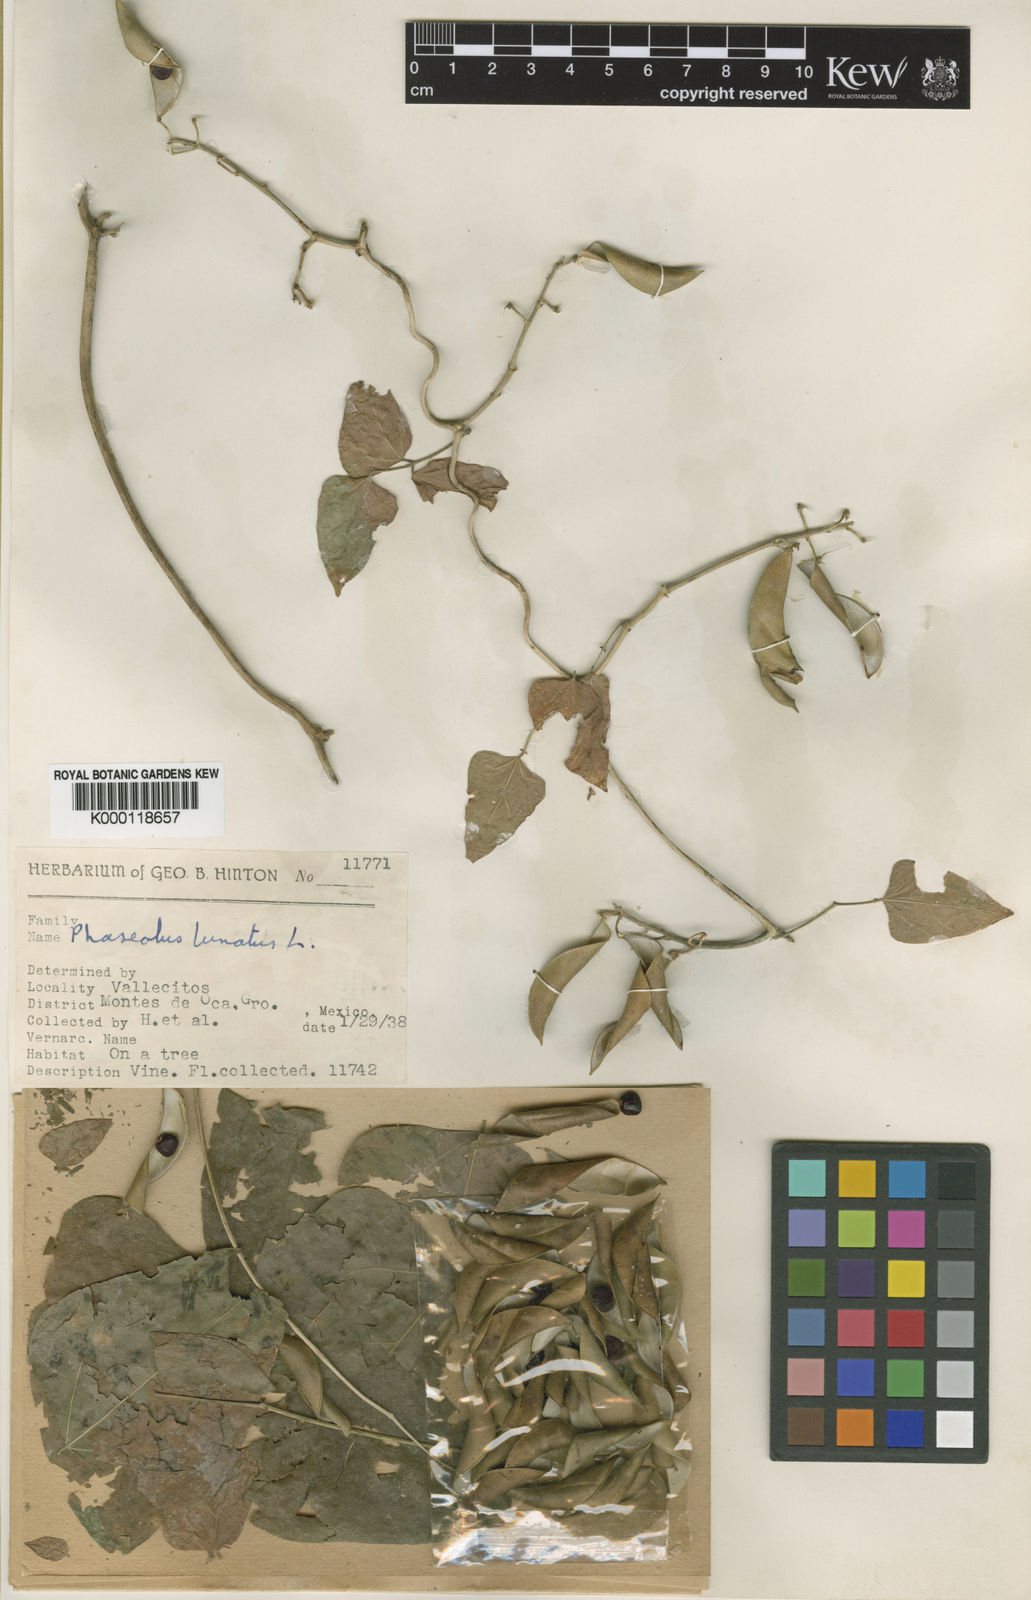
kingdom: Plantae
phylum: Tracheophyta
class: Magnoliopsida
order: Fabales
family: Fabaceae
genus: Phaseolus
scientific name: Phaseolus lunatus
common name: Sieva bean
